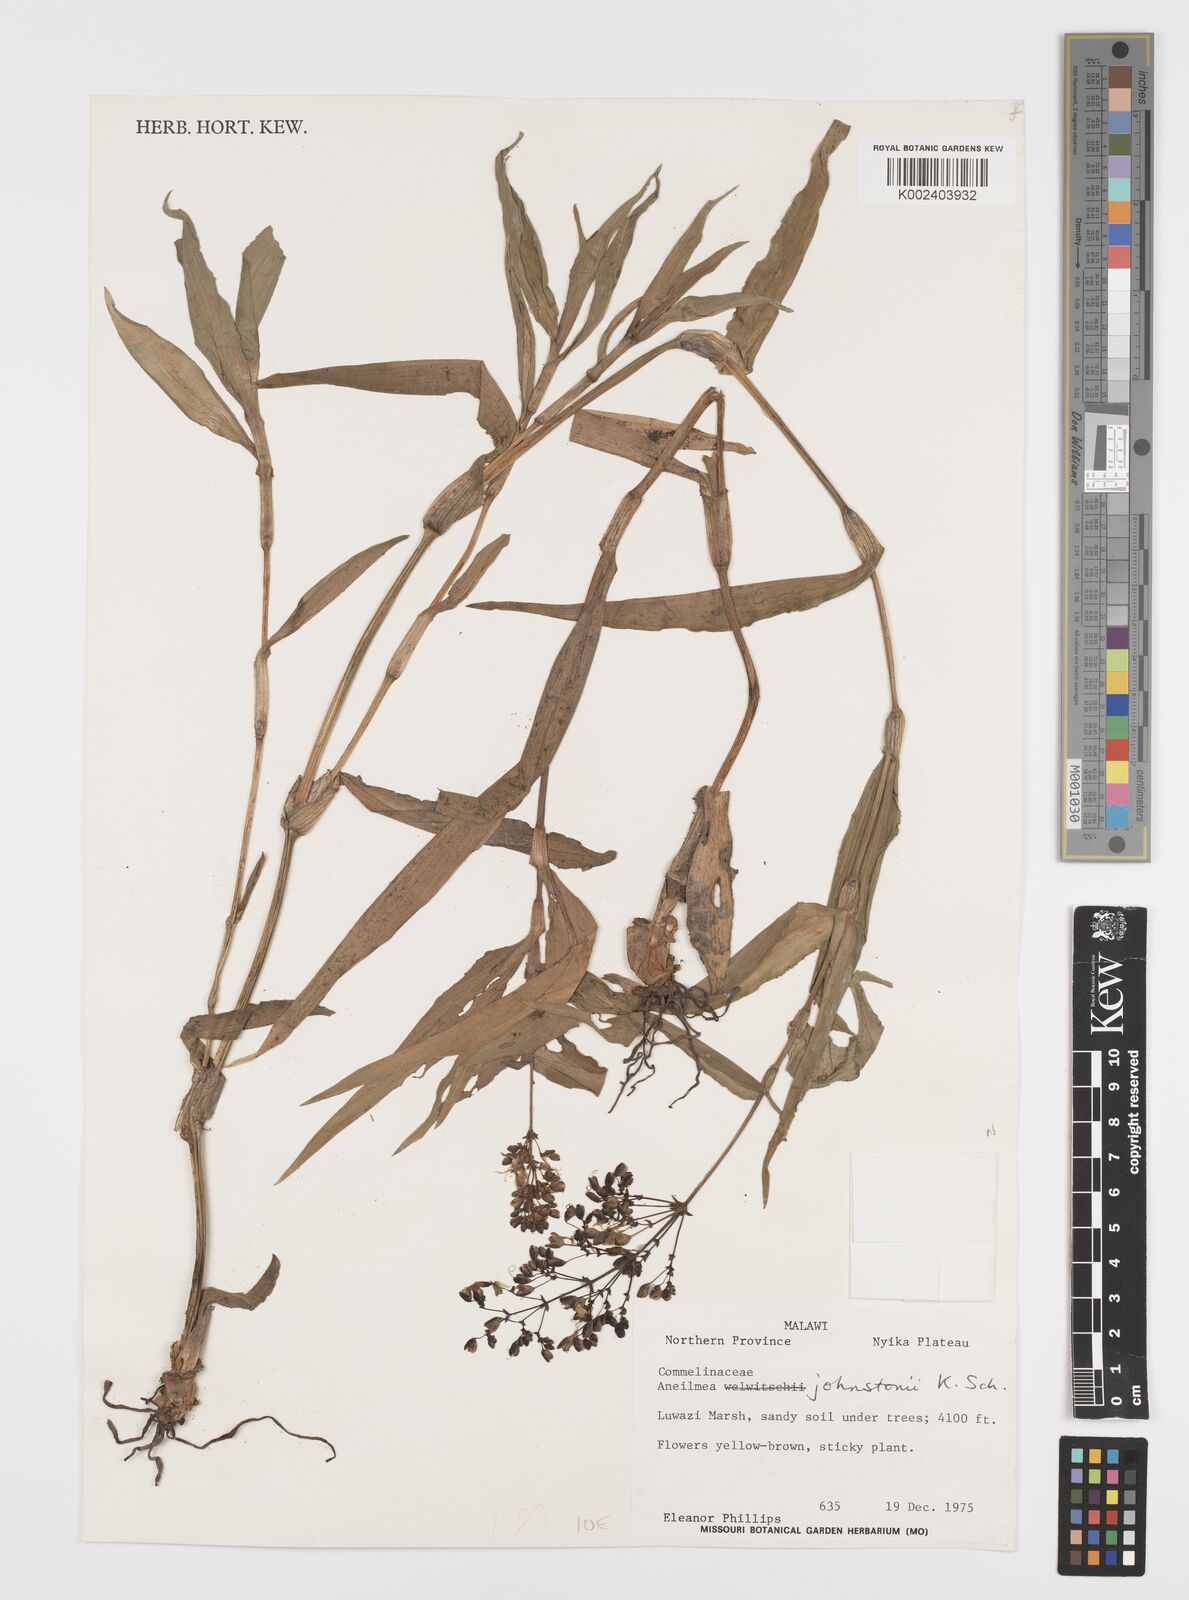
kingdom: Plantae
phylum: Tracheophyta
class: Liliopsida
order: Commelinales
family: Commelinaceae
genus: Aneilema
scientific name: Aneilema johnstonii
